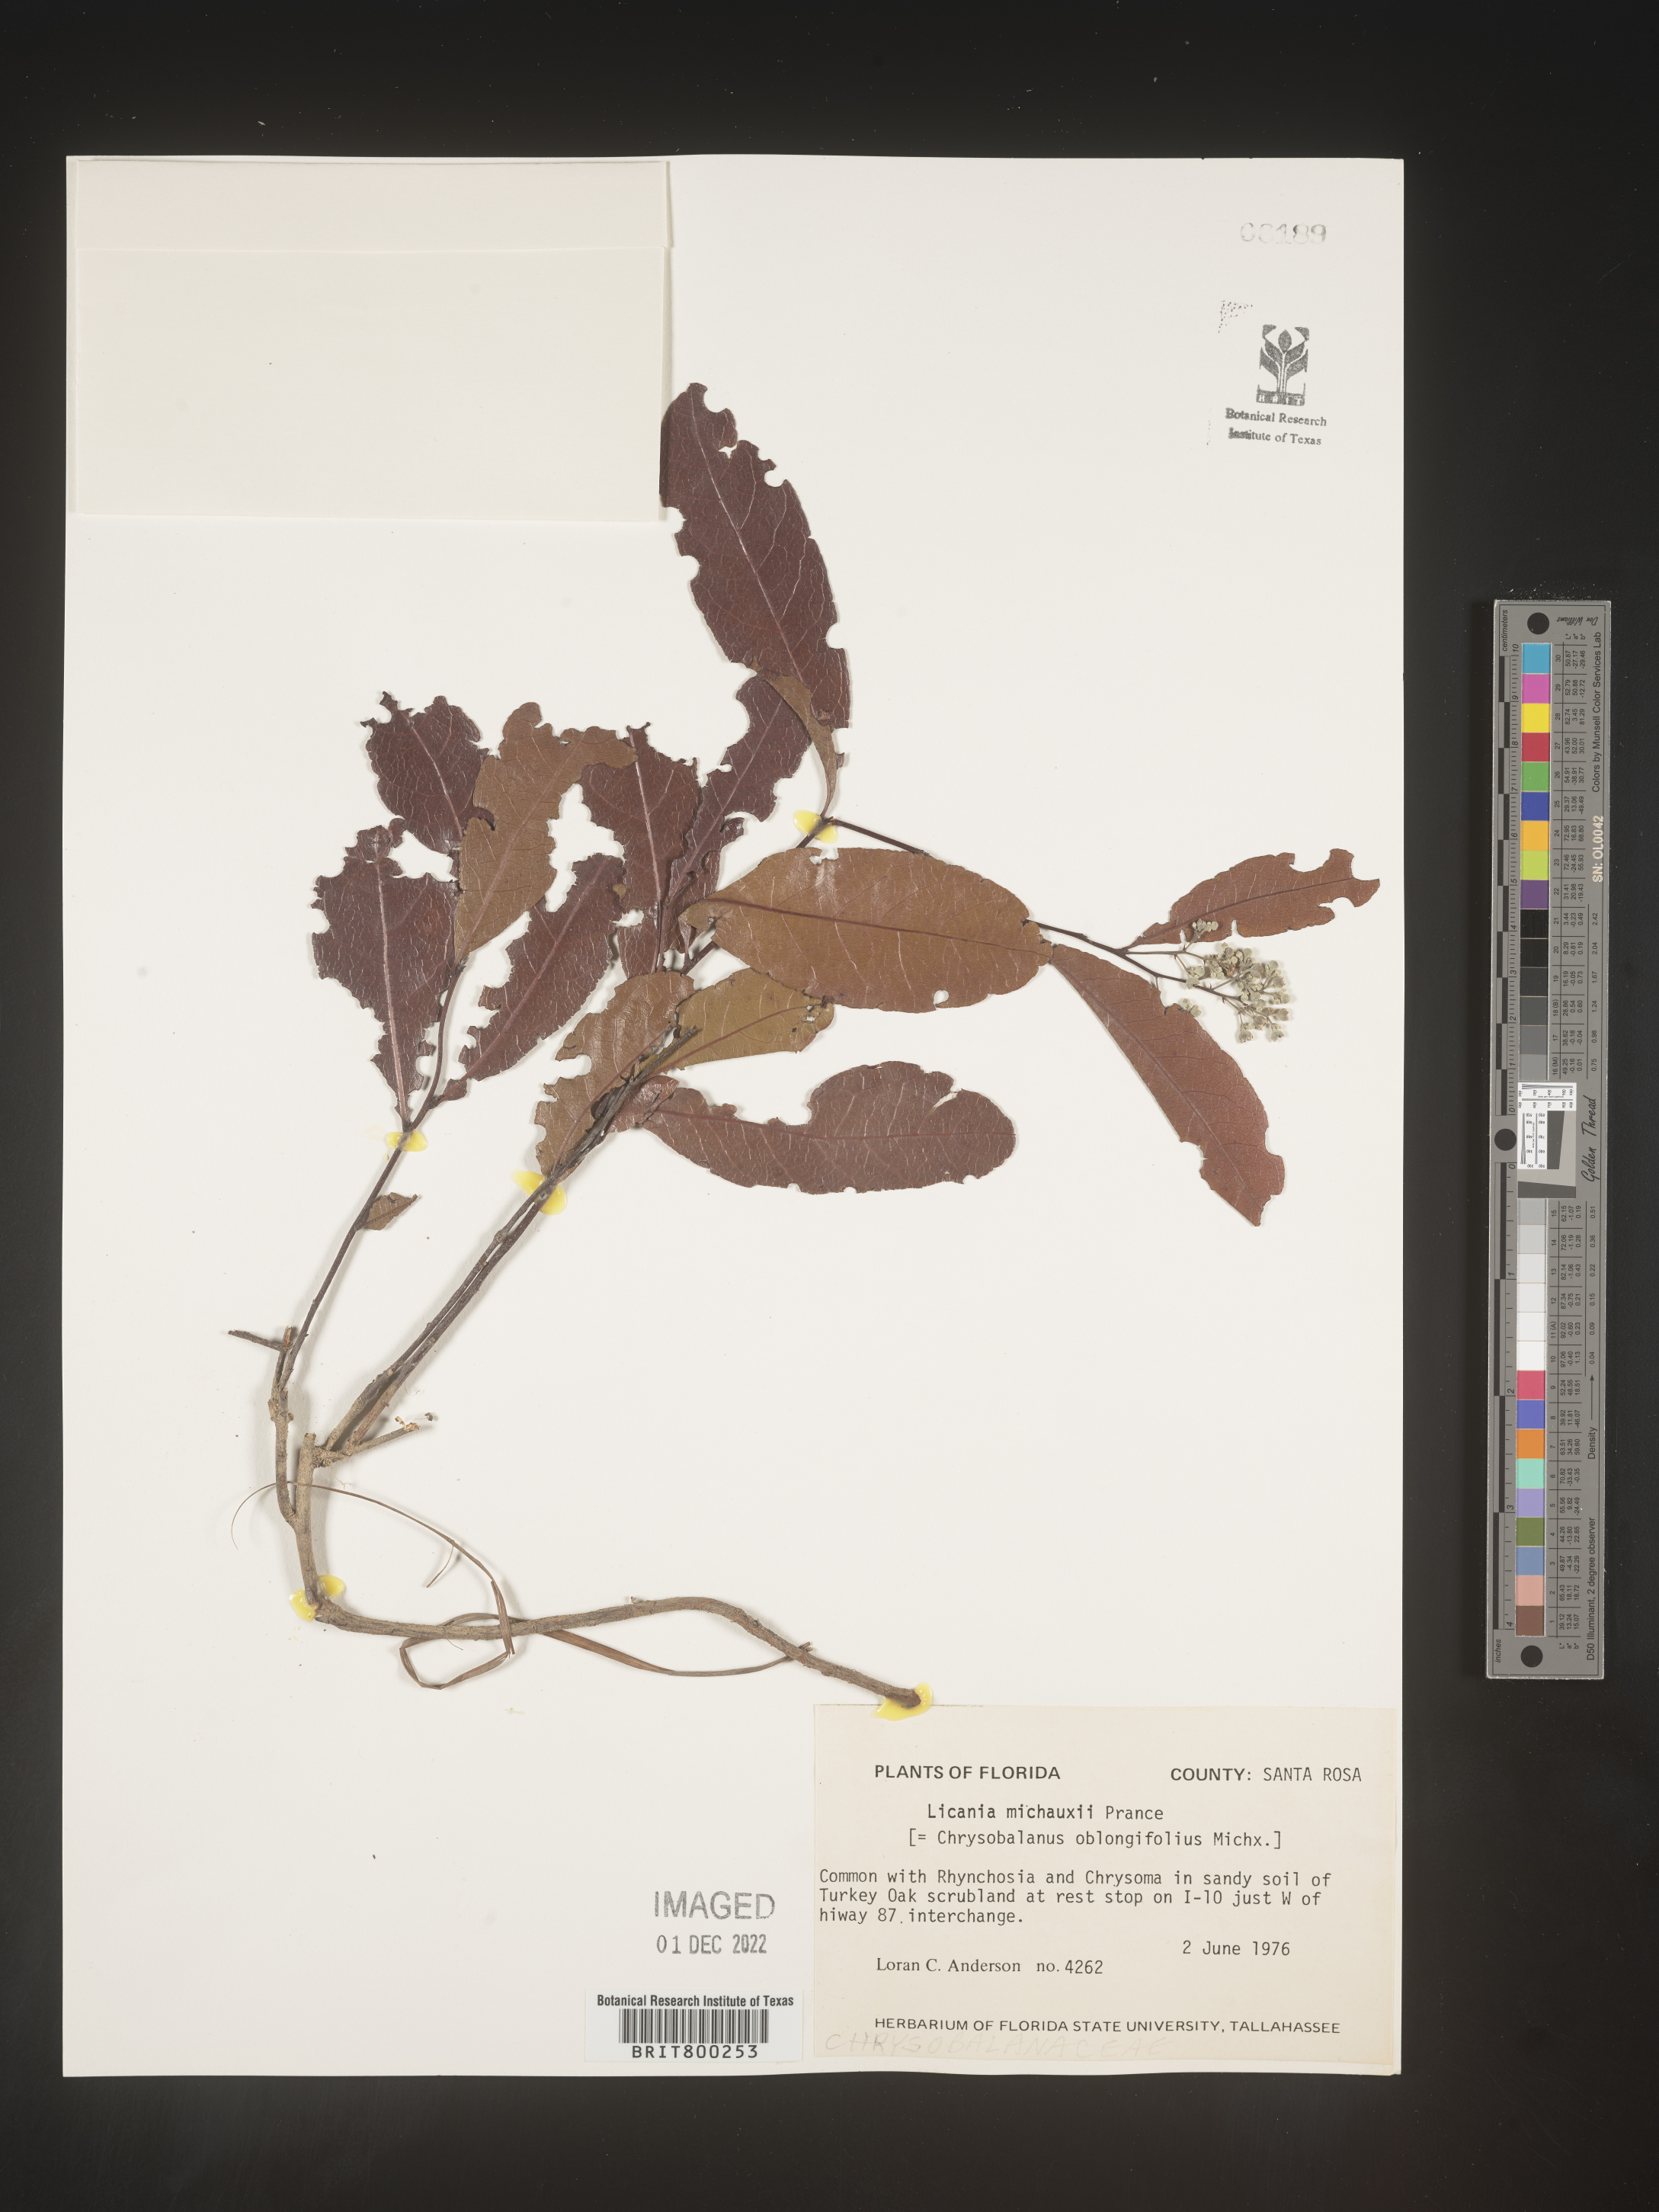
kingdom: Plantae
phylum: Tracheophyta
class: Magnoliopsida
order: Malpighiales
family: Chrysobalanaceae
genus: Geobalanus
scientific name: Geobalanus oblongifolius
